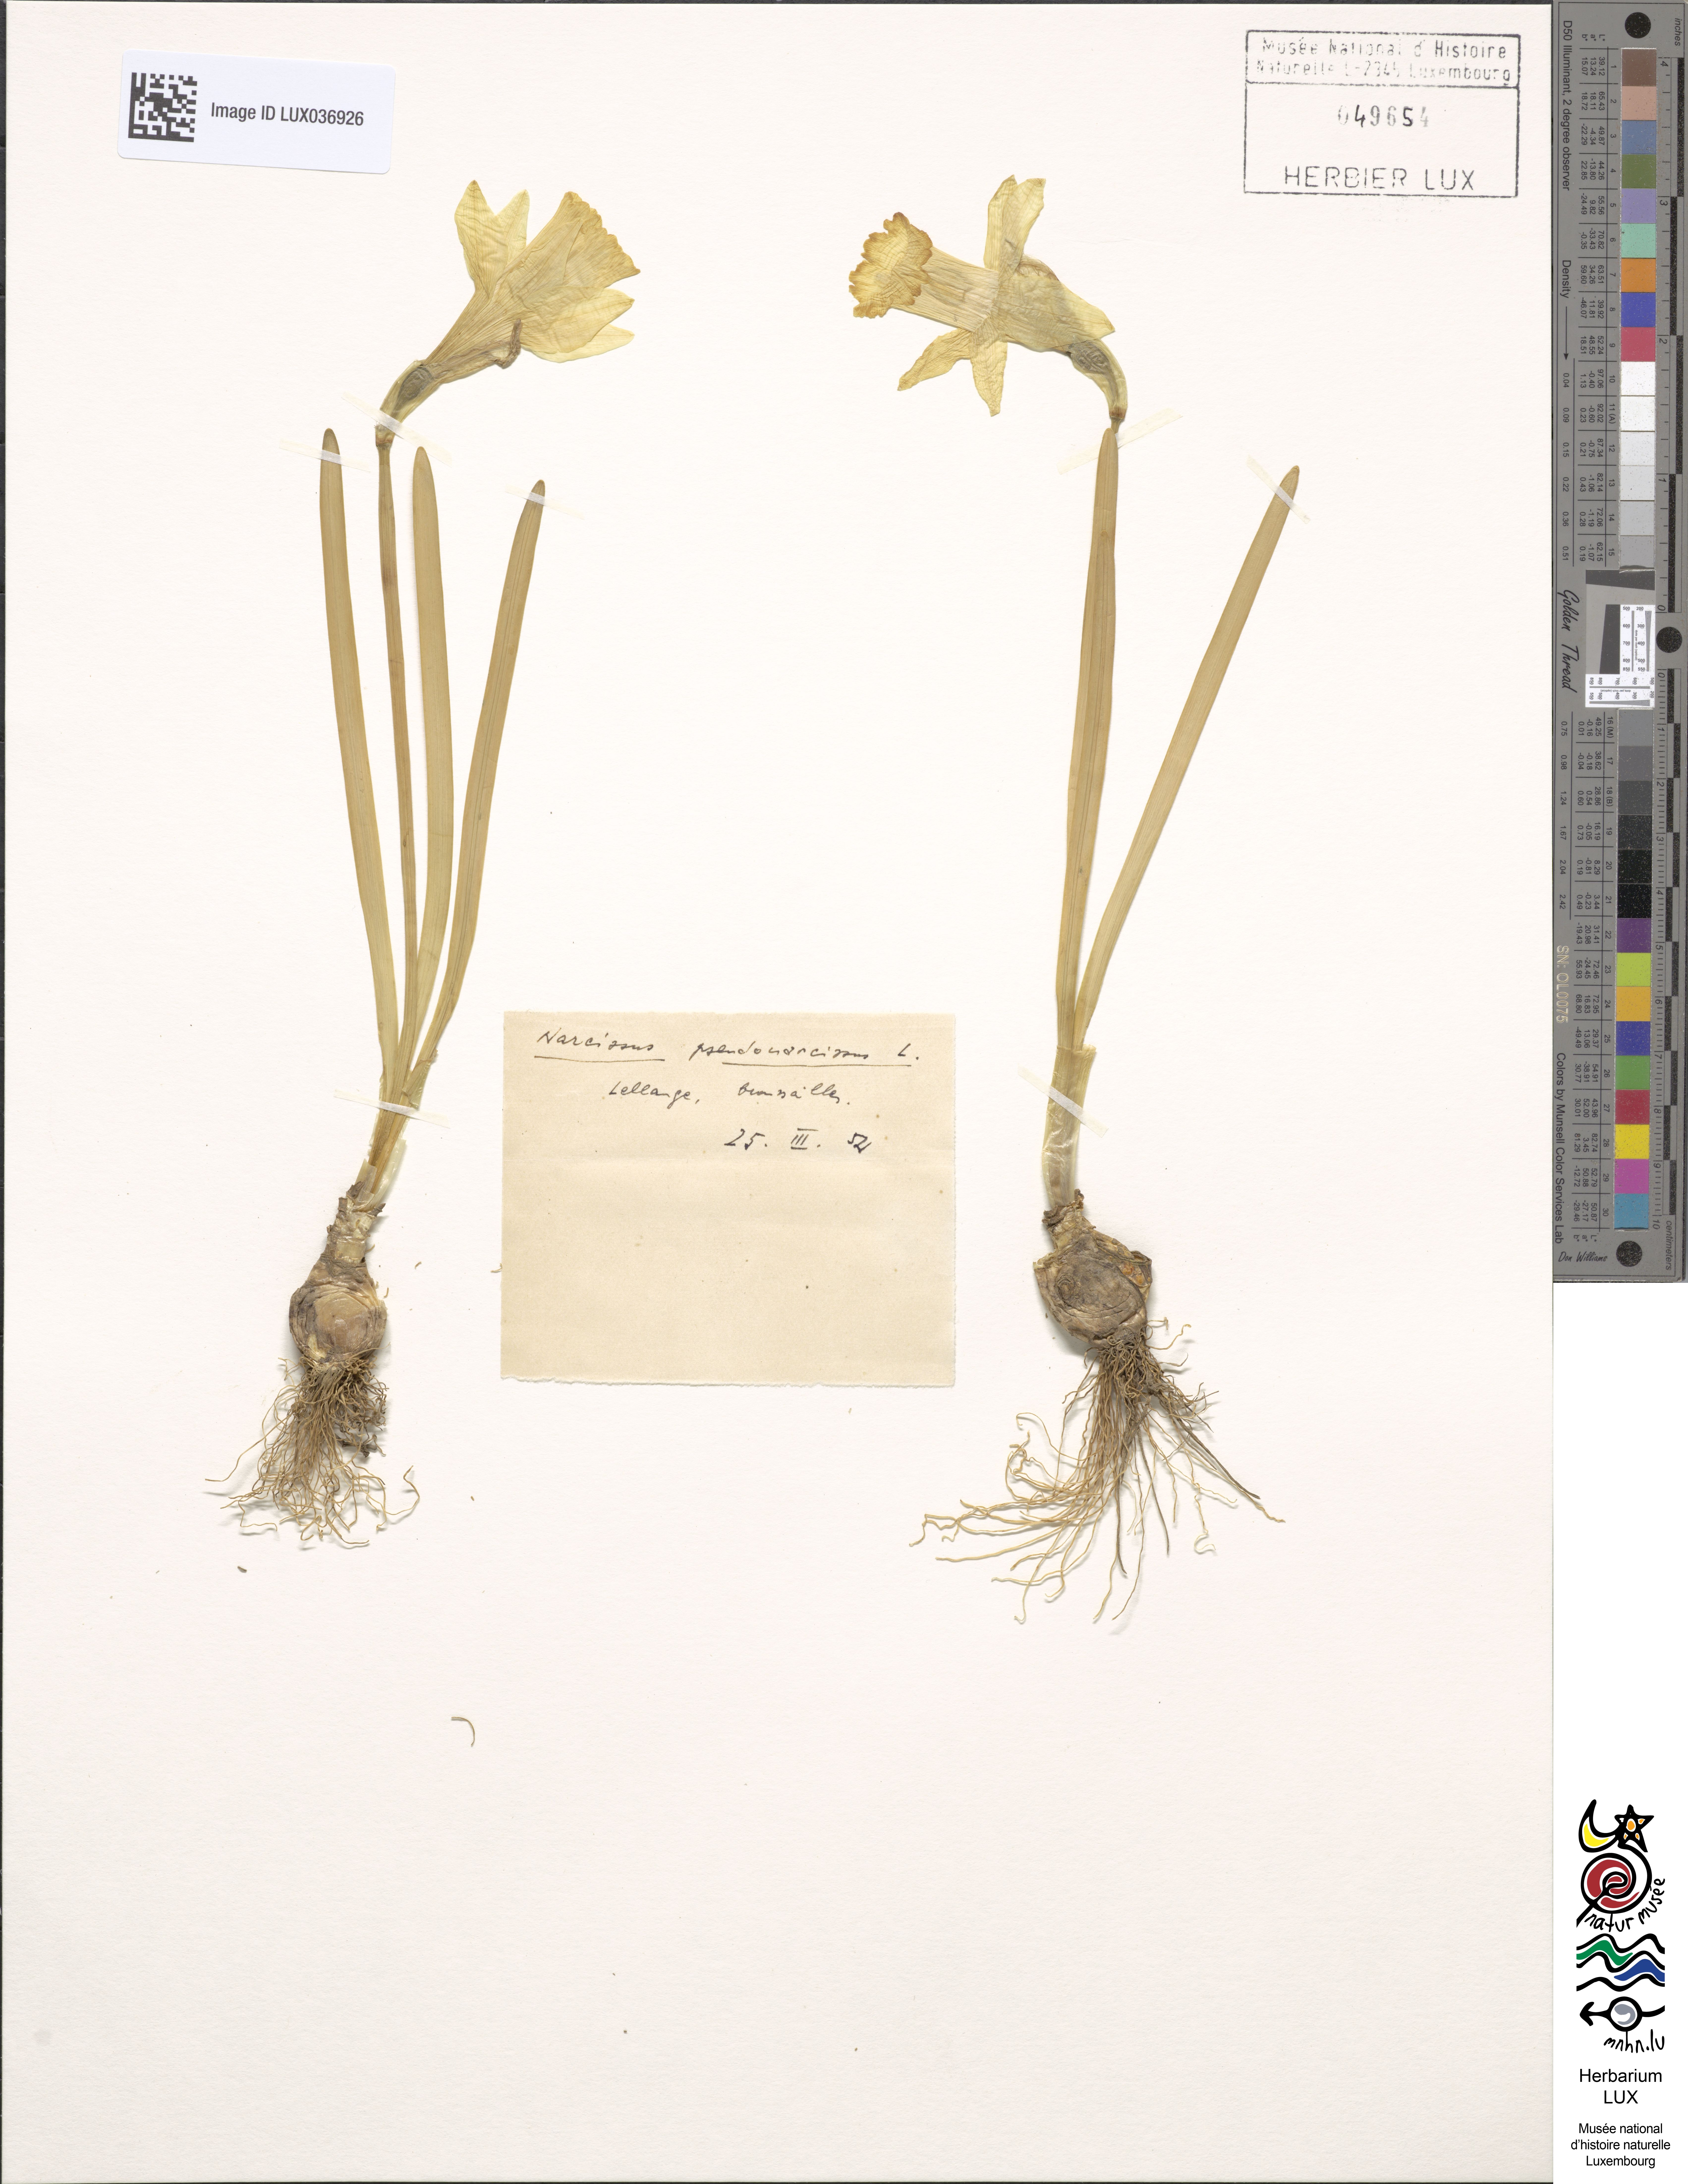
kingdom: Plantae
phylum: Tracheophyta
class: Liliopsida
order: Asparagales
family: Amaryllidaceae
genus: Narcissus
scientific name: Narcissus pseudonarcissus
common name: Daffodil
